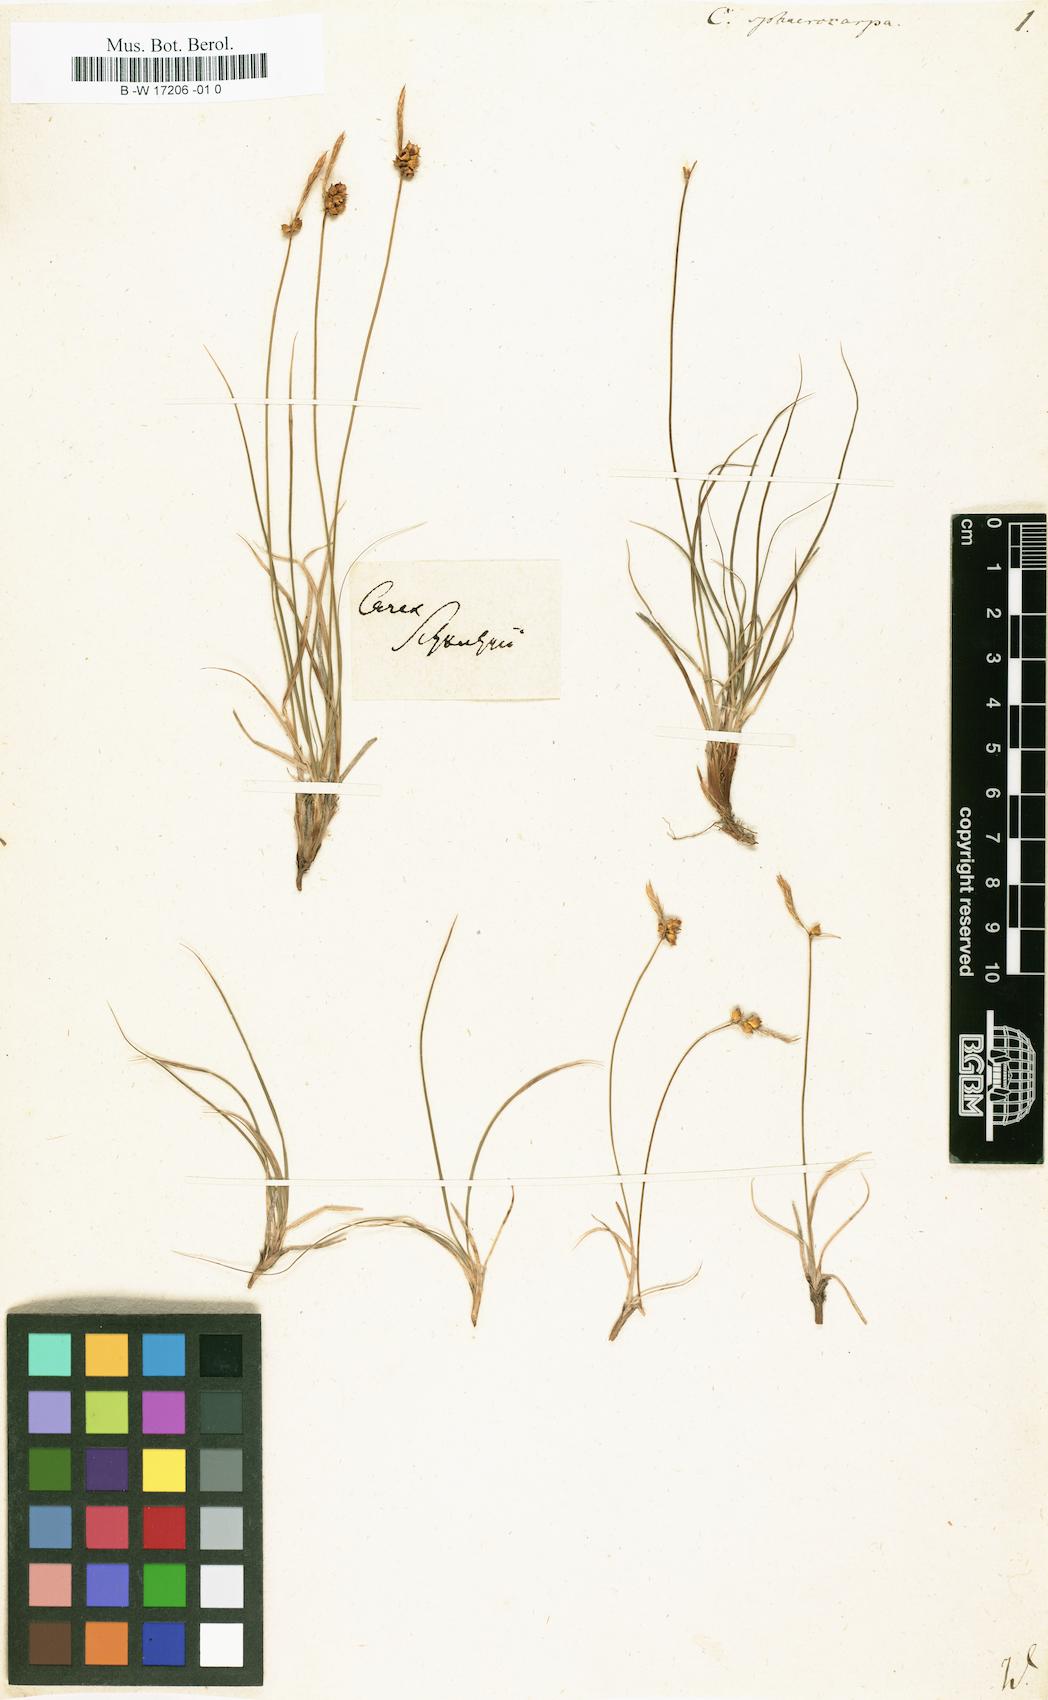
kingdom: Plantae
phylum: Tracheophyta
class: Liliopsida
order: Poales
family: Cyperaceae
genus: Carex
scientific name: Carex tomentosa
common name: Downy-fruited sedge
